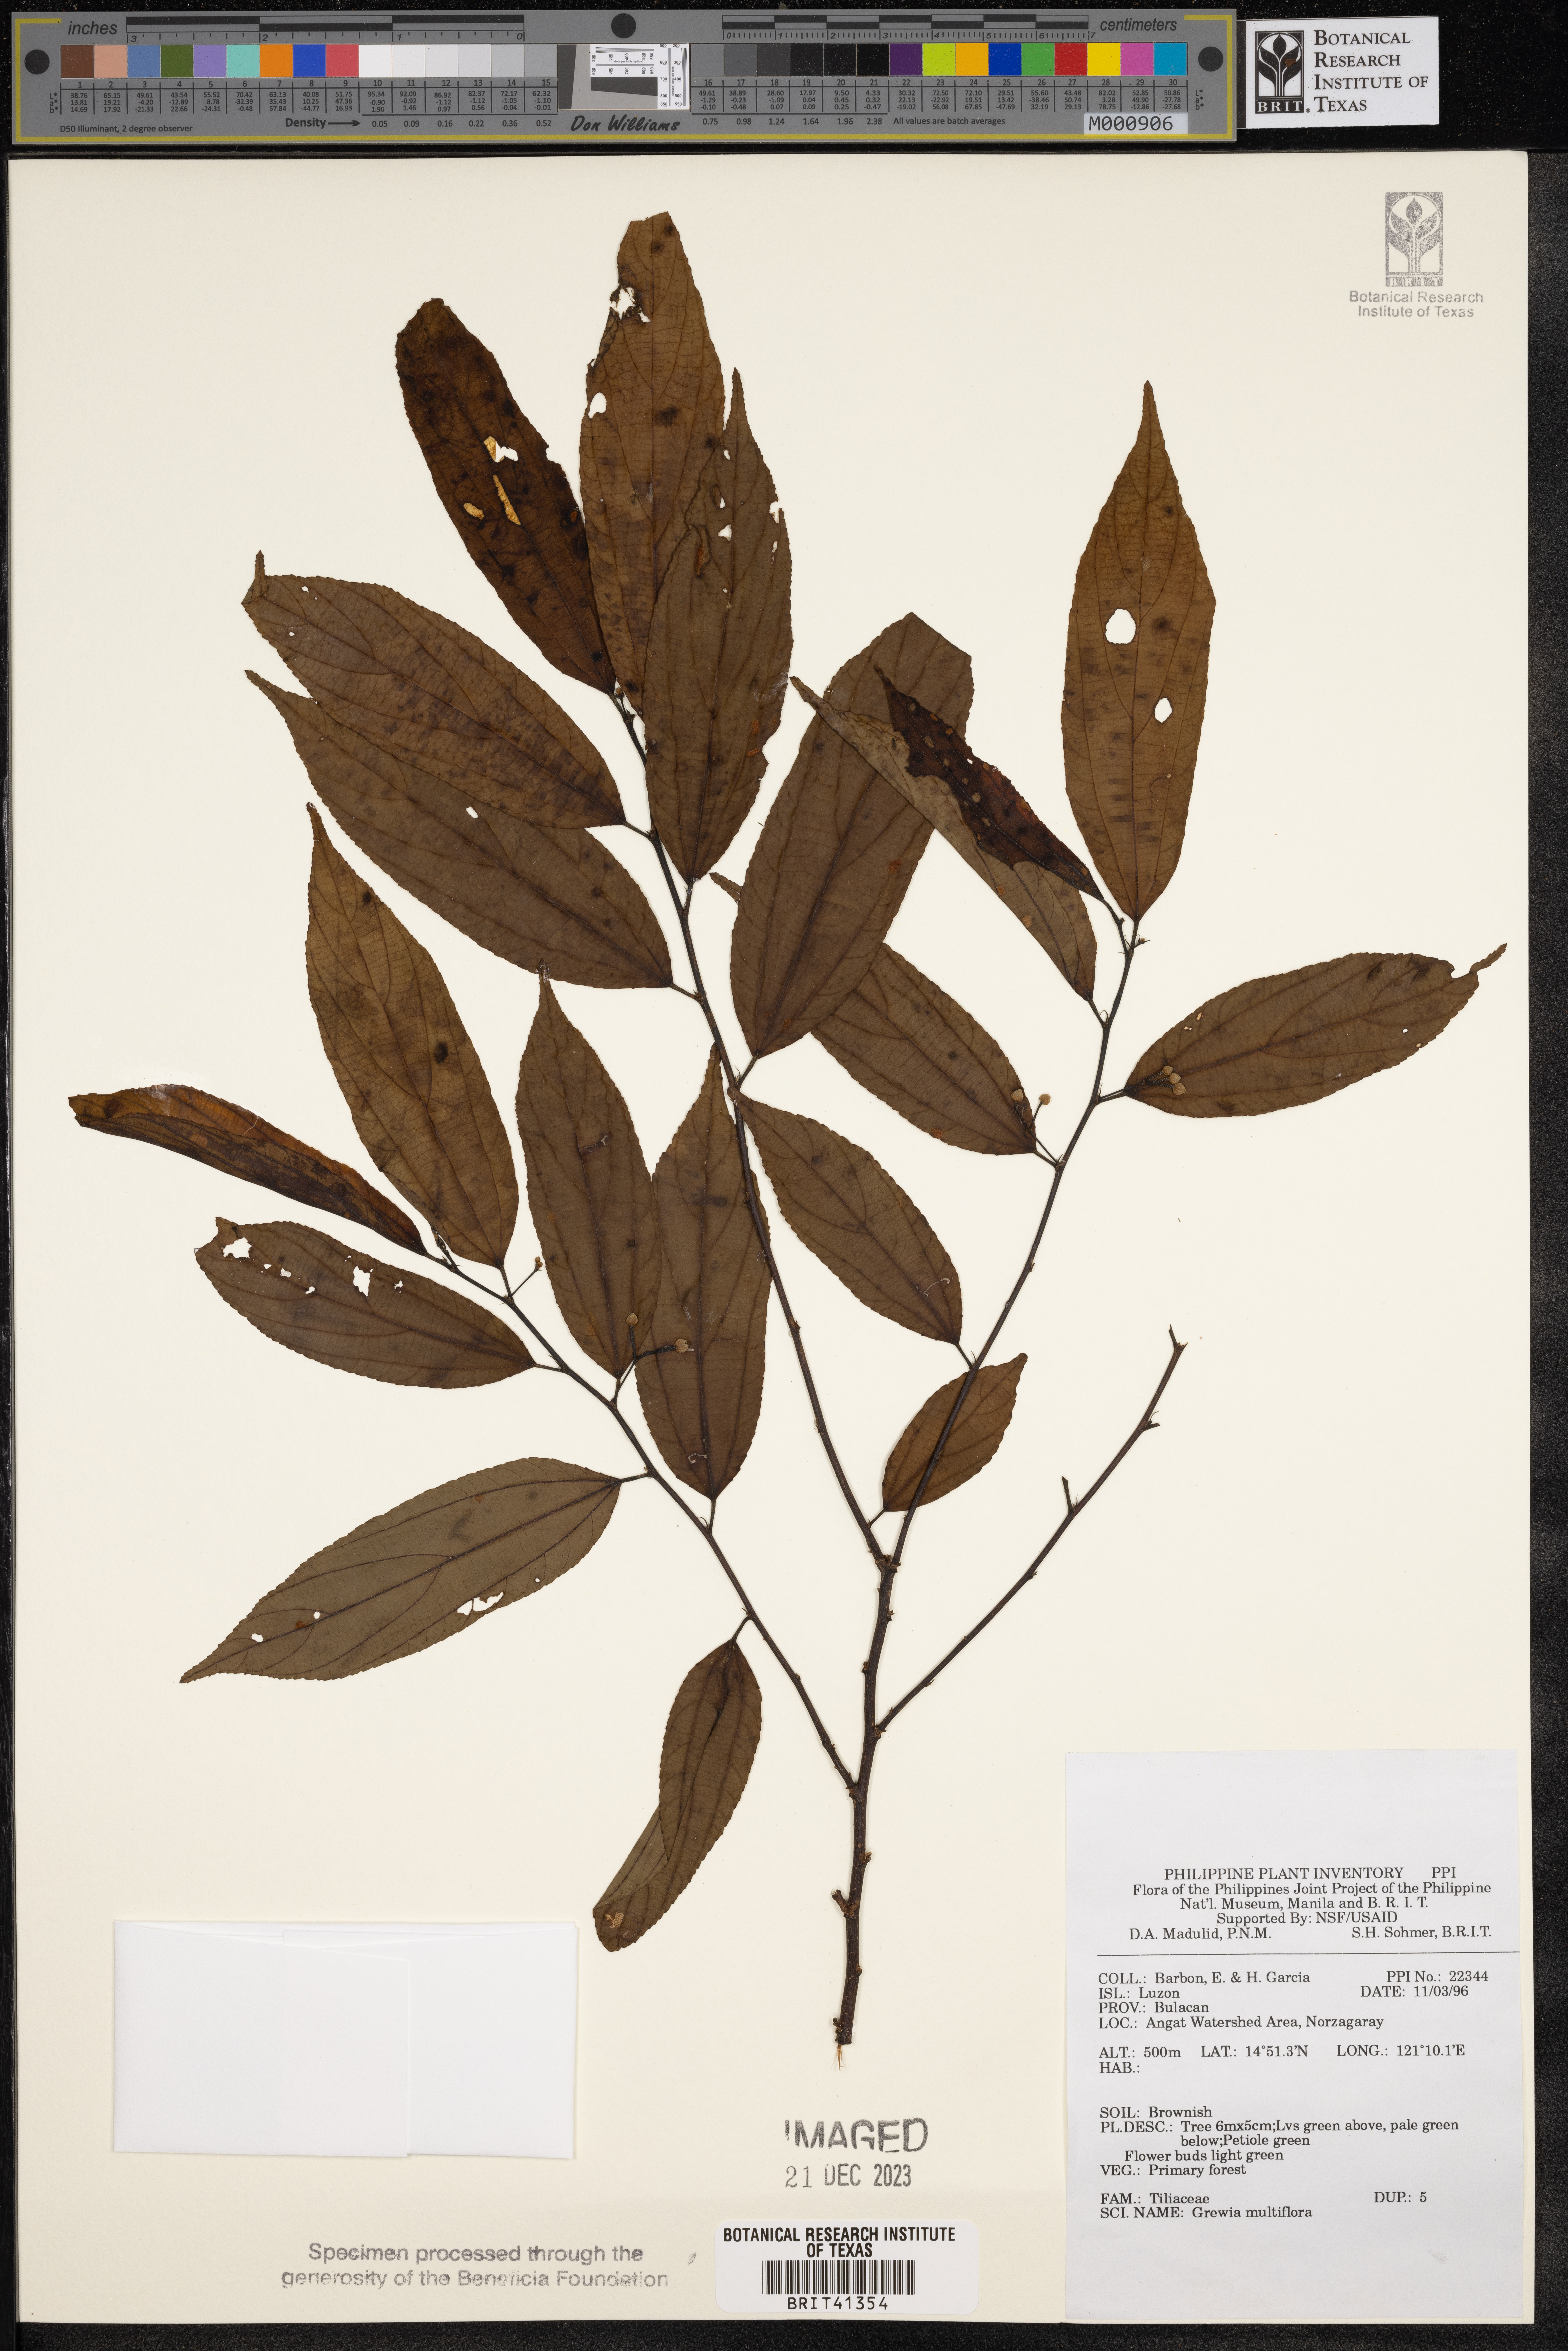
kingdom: Plantae
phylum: Tracheophyta
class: Magnoliopsida
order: Malvales
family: Malvaceae
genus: Grewia
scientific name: Grewia multiflora
